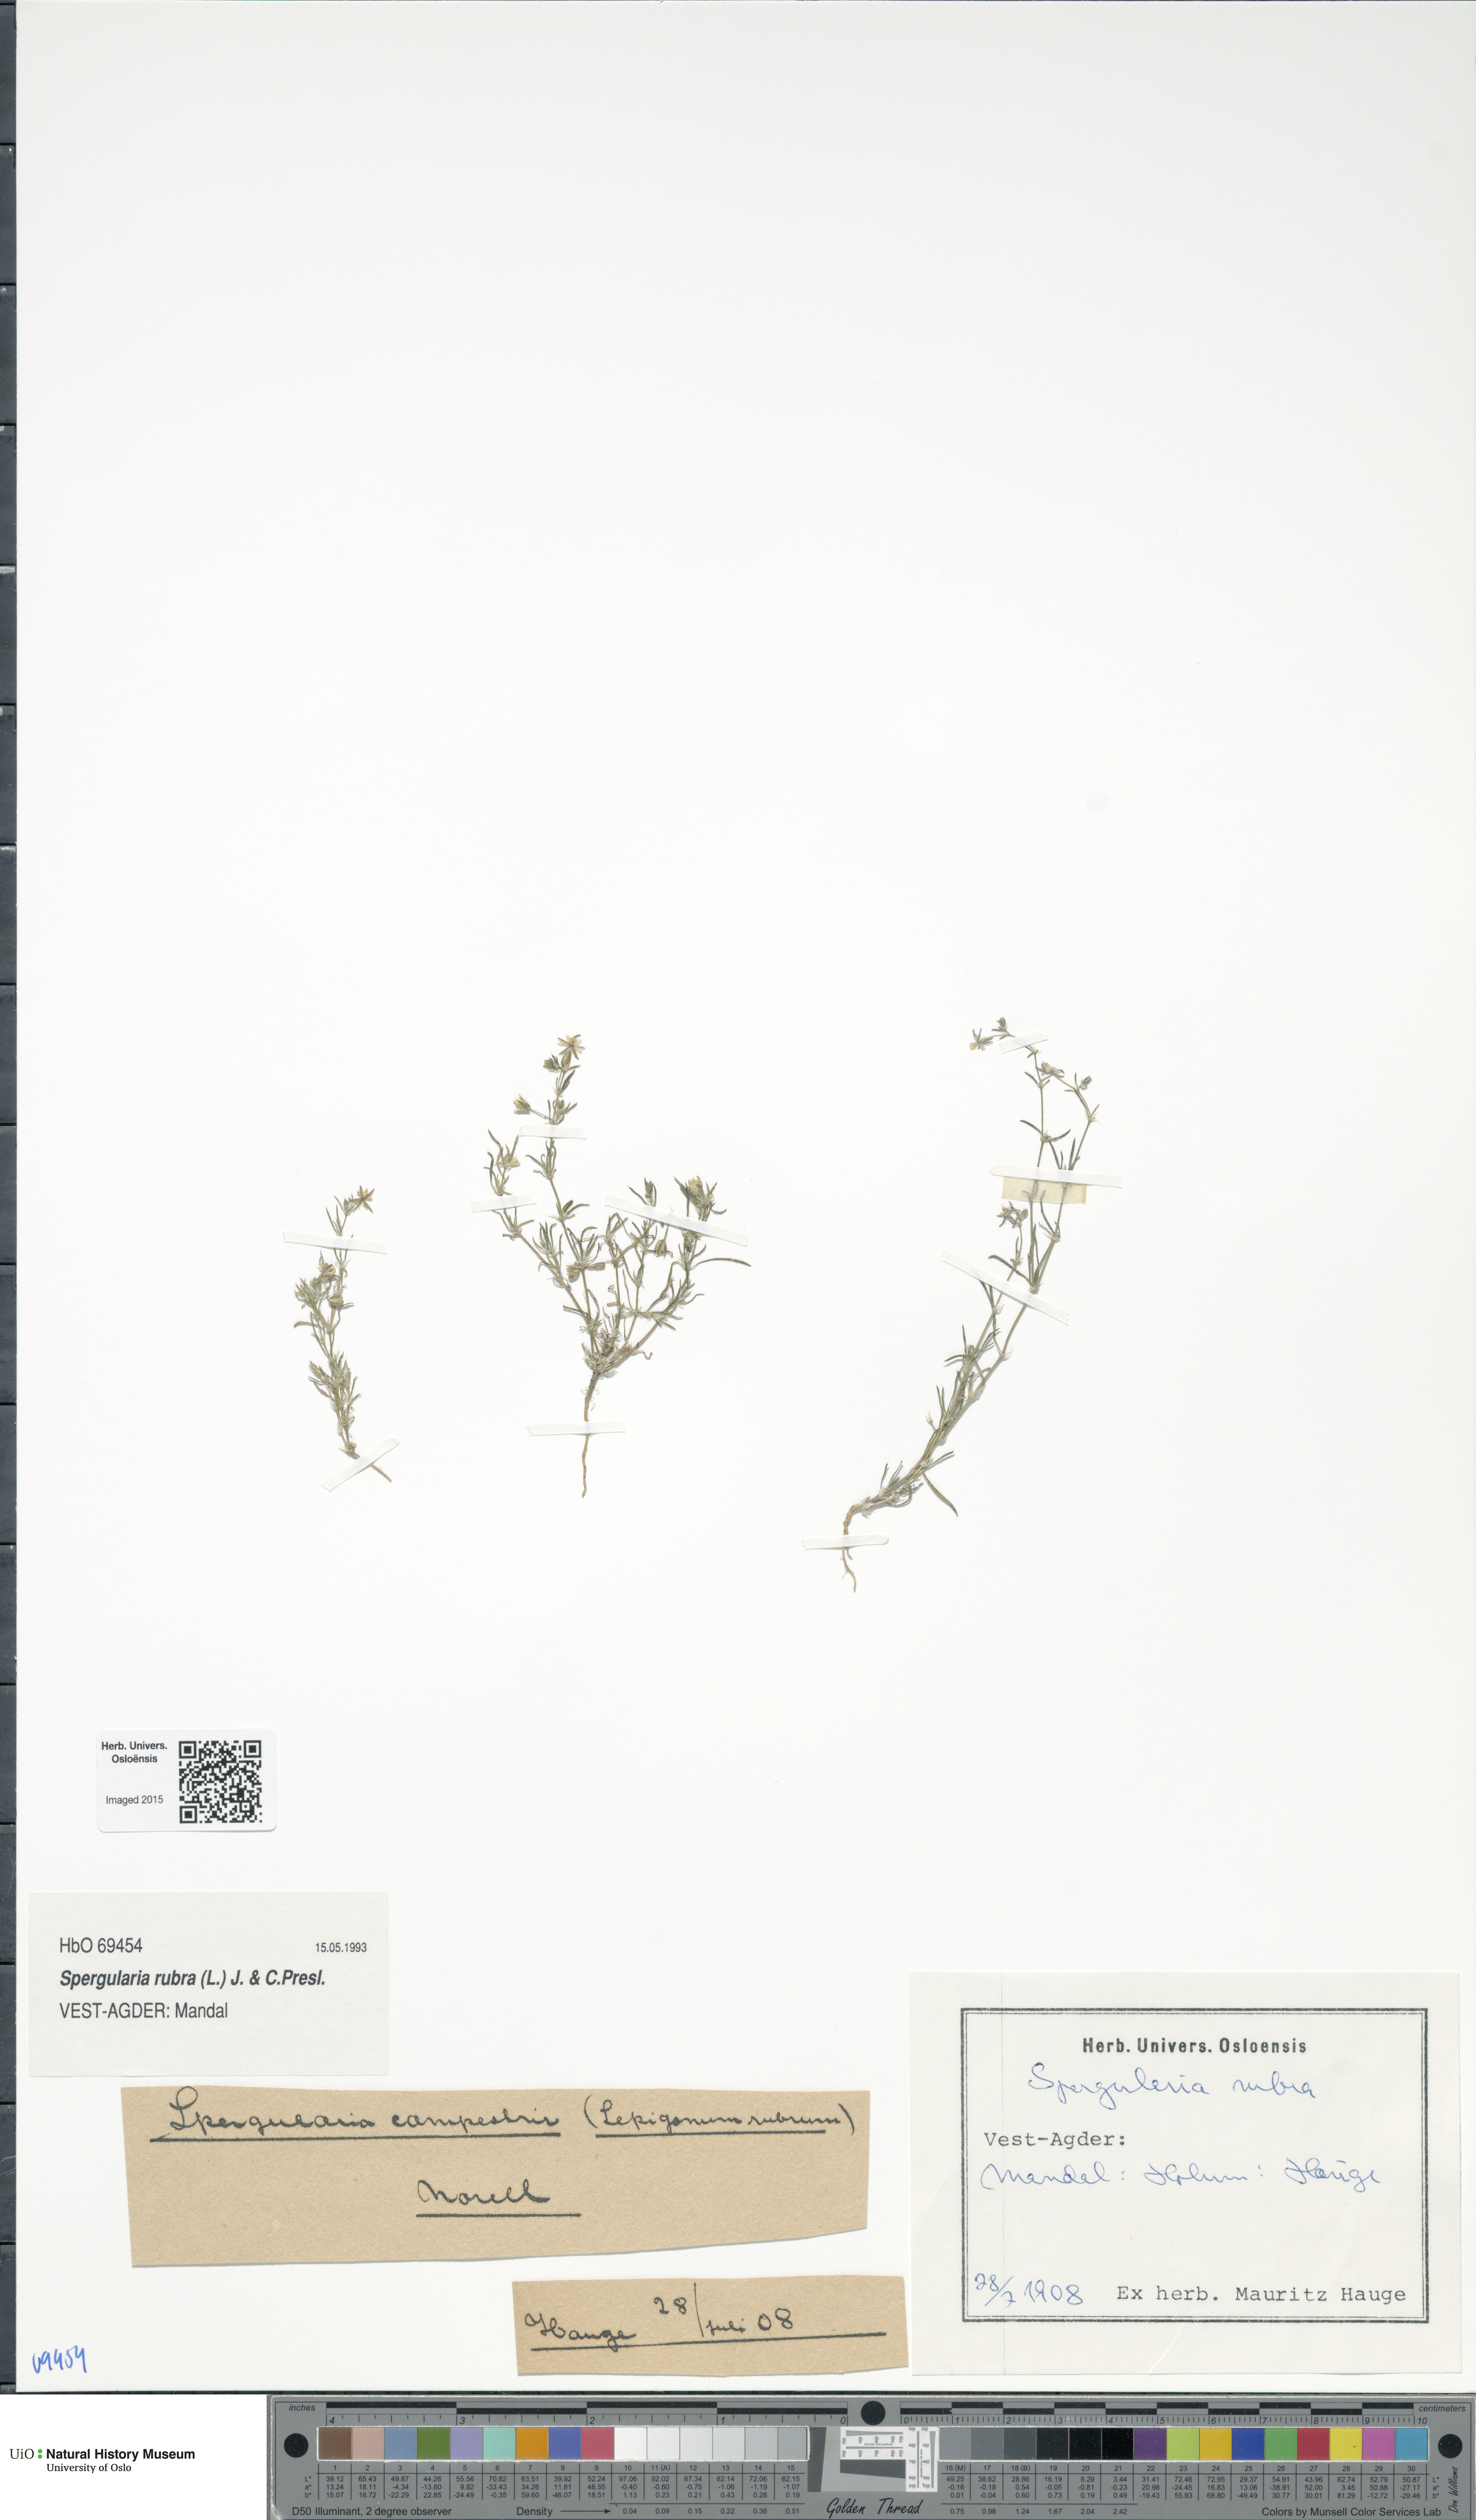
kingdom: Plantae
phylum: Tracheophyta
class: Magnoliopsida
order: Caryophyllales
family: Caryophyllaceae
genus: Spergularia
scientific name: Spergularia rubra
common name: Red sand-spurrey
